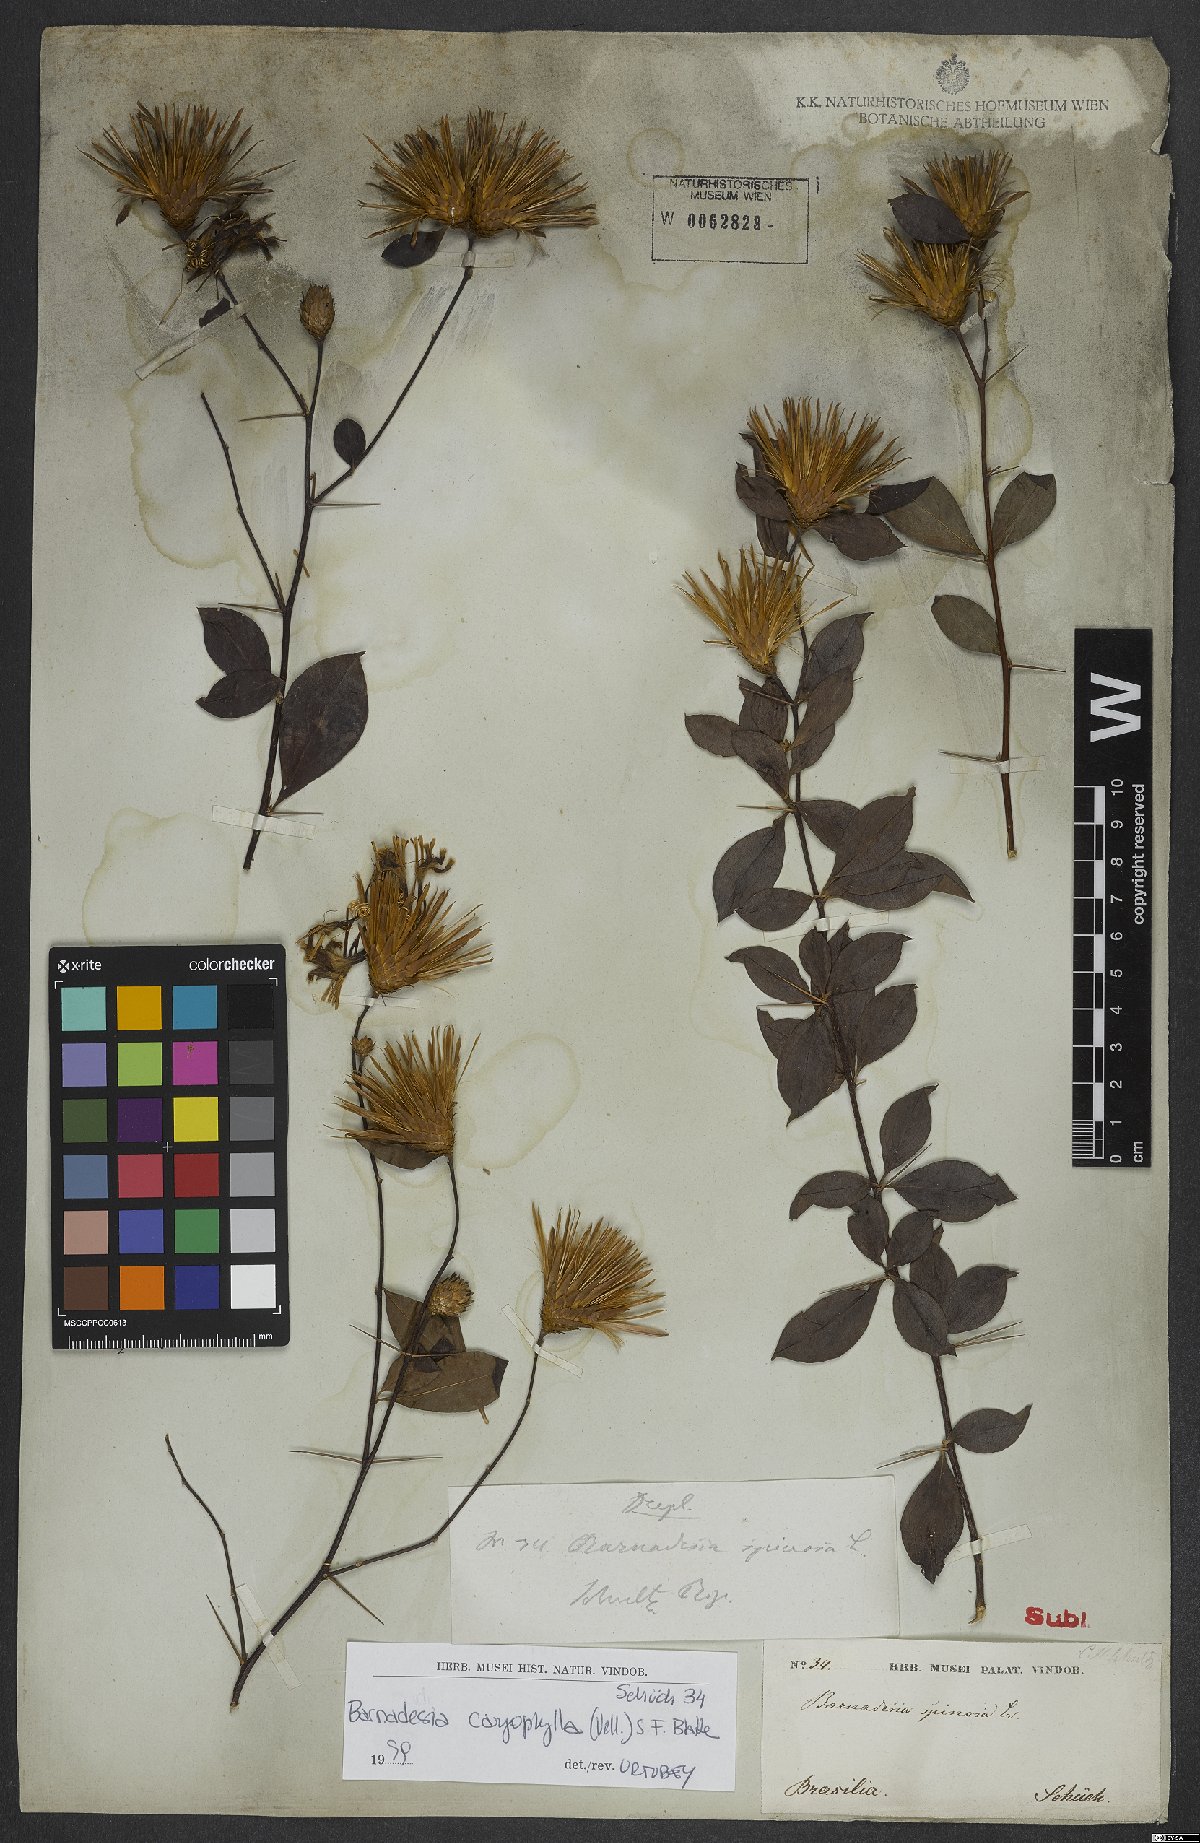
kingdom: Plantae
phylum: Tracheophyta
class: Magnoliopsida
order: Asterales
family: Asteraceae
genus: Barnadesia
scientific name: Barnadesia caryophylla
